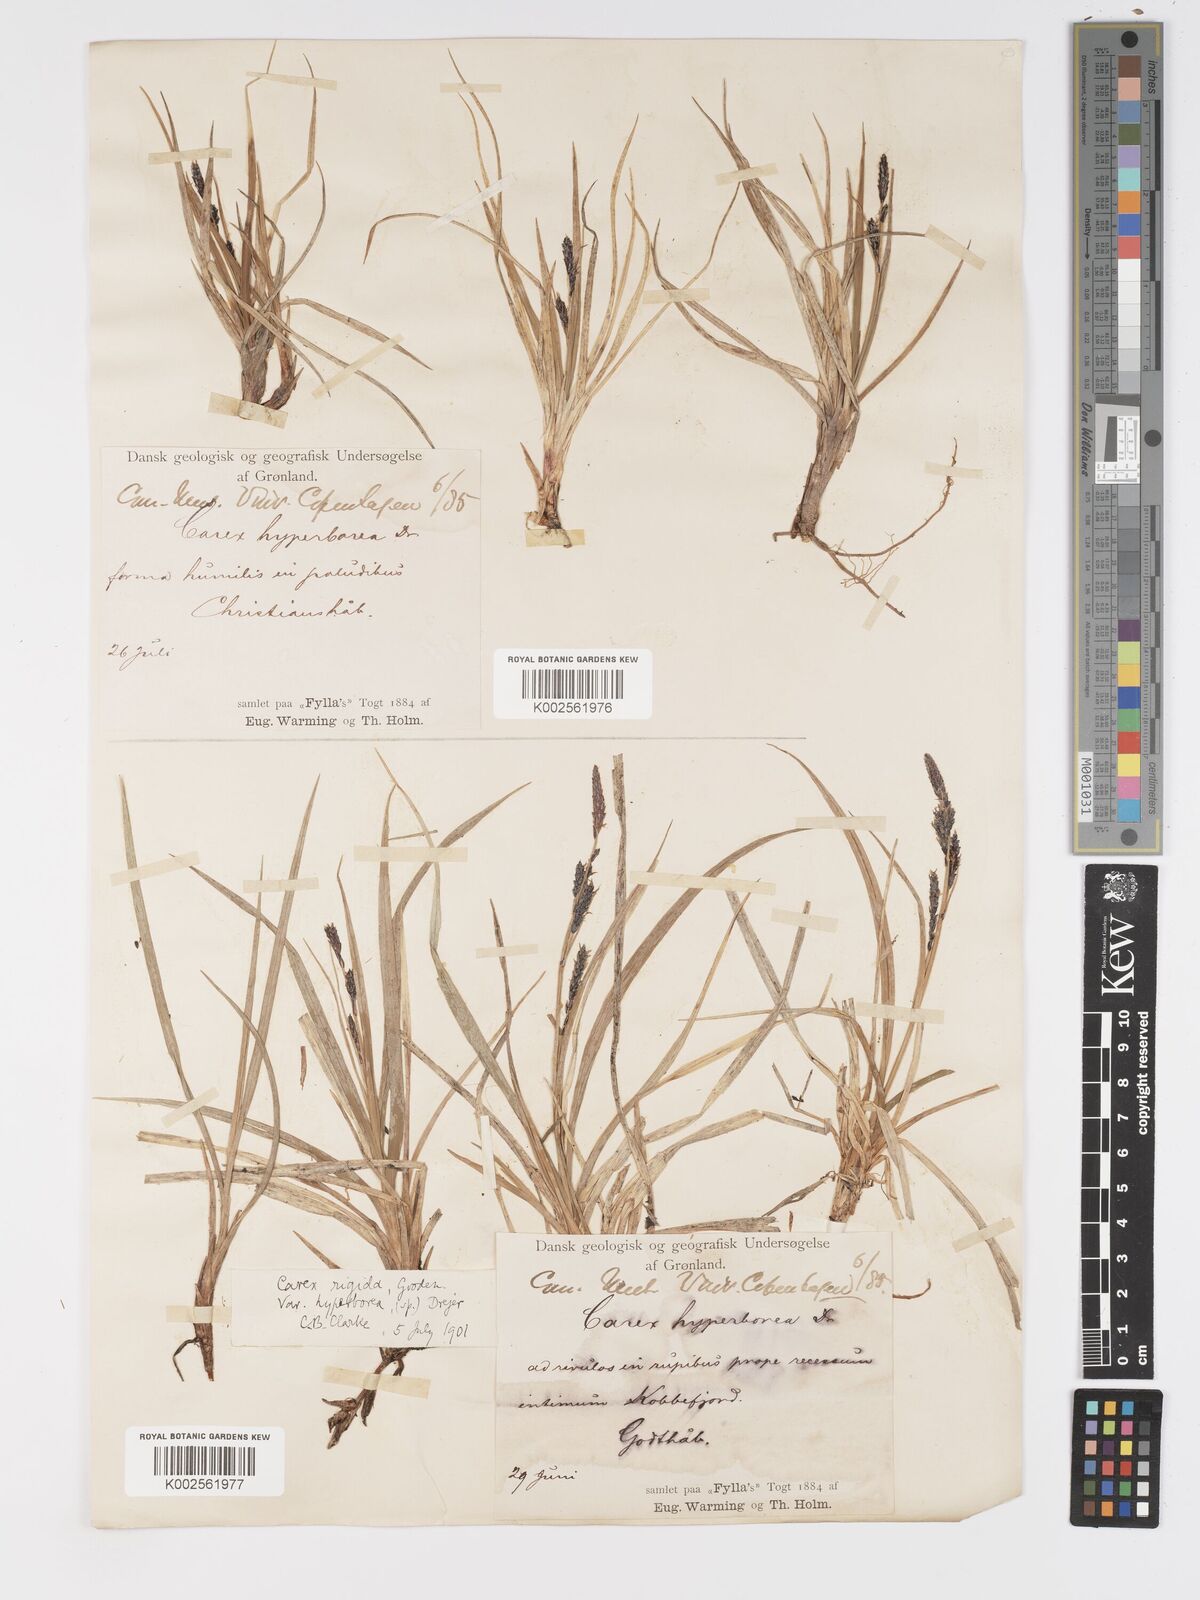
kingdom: Plantae
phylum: Tracheophyta
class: Liliopsida
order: Poales
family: Cyperaceae
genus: Carex
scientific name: Carex bigelowii
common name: Stiff sedge
